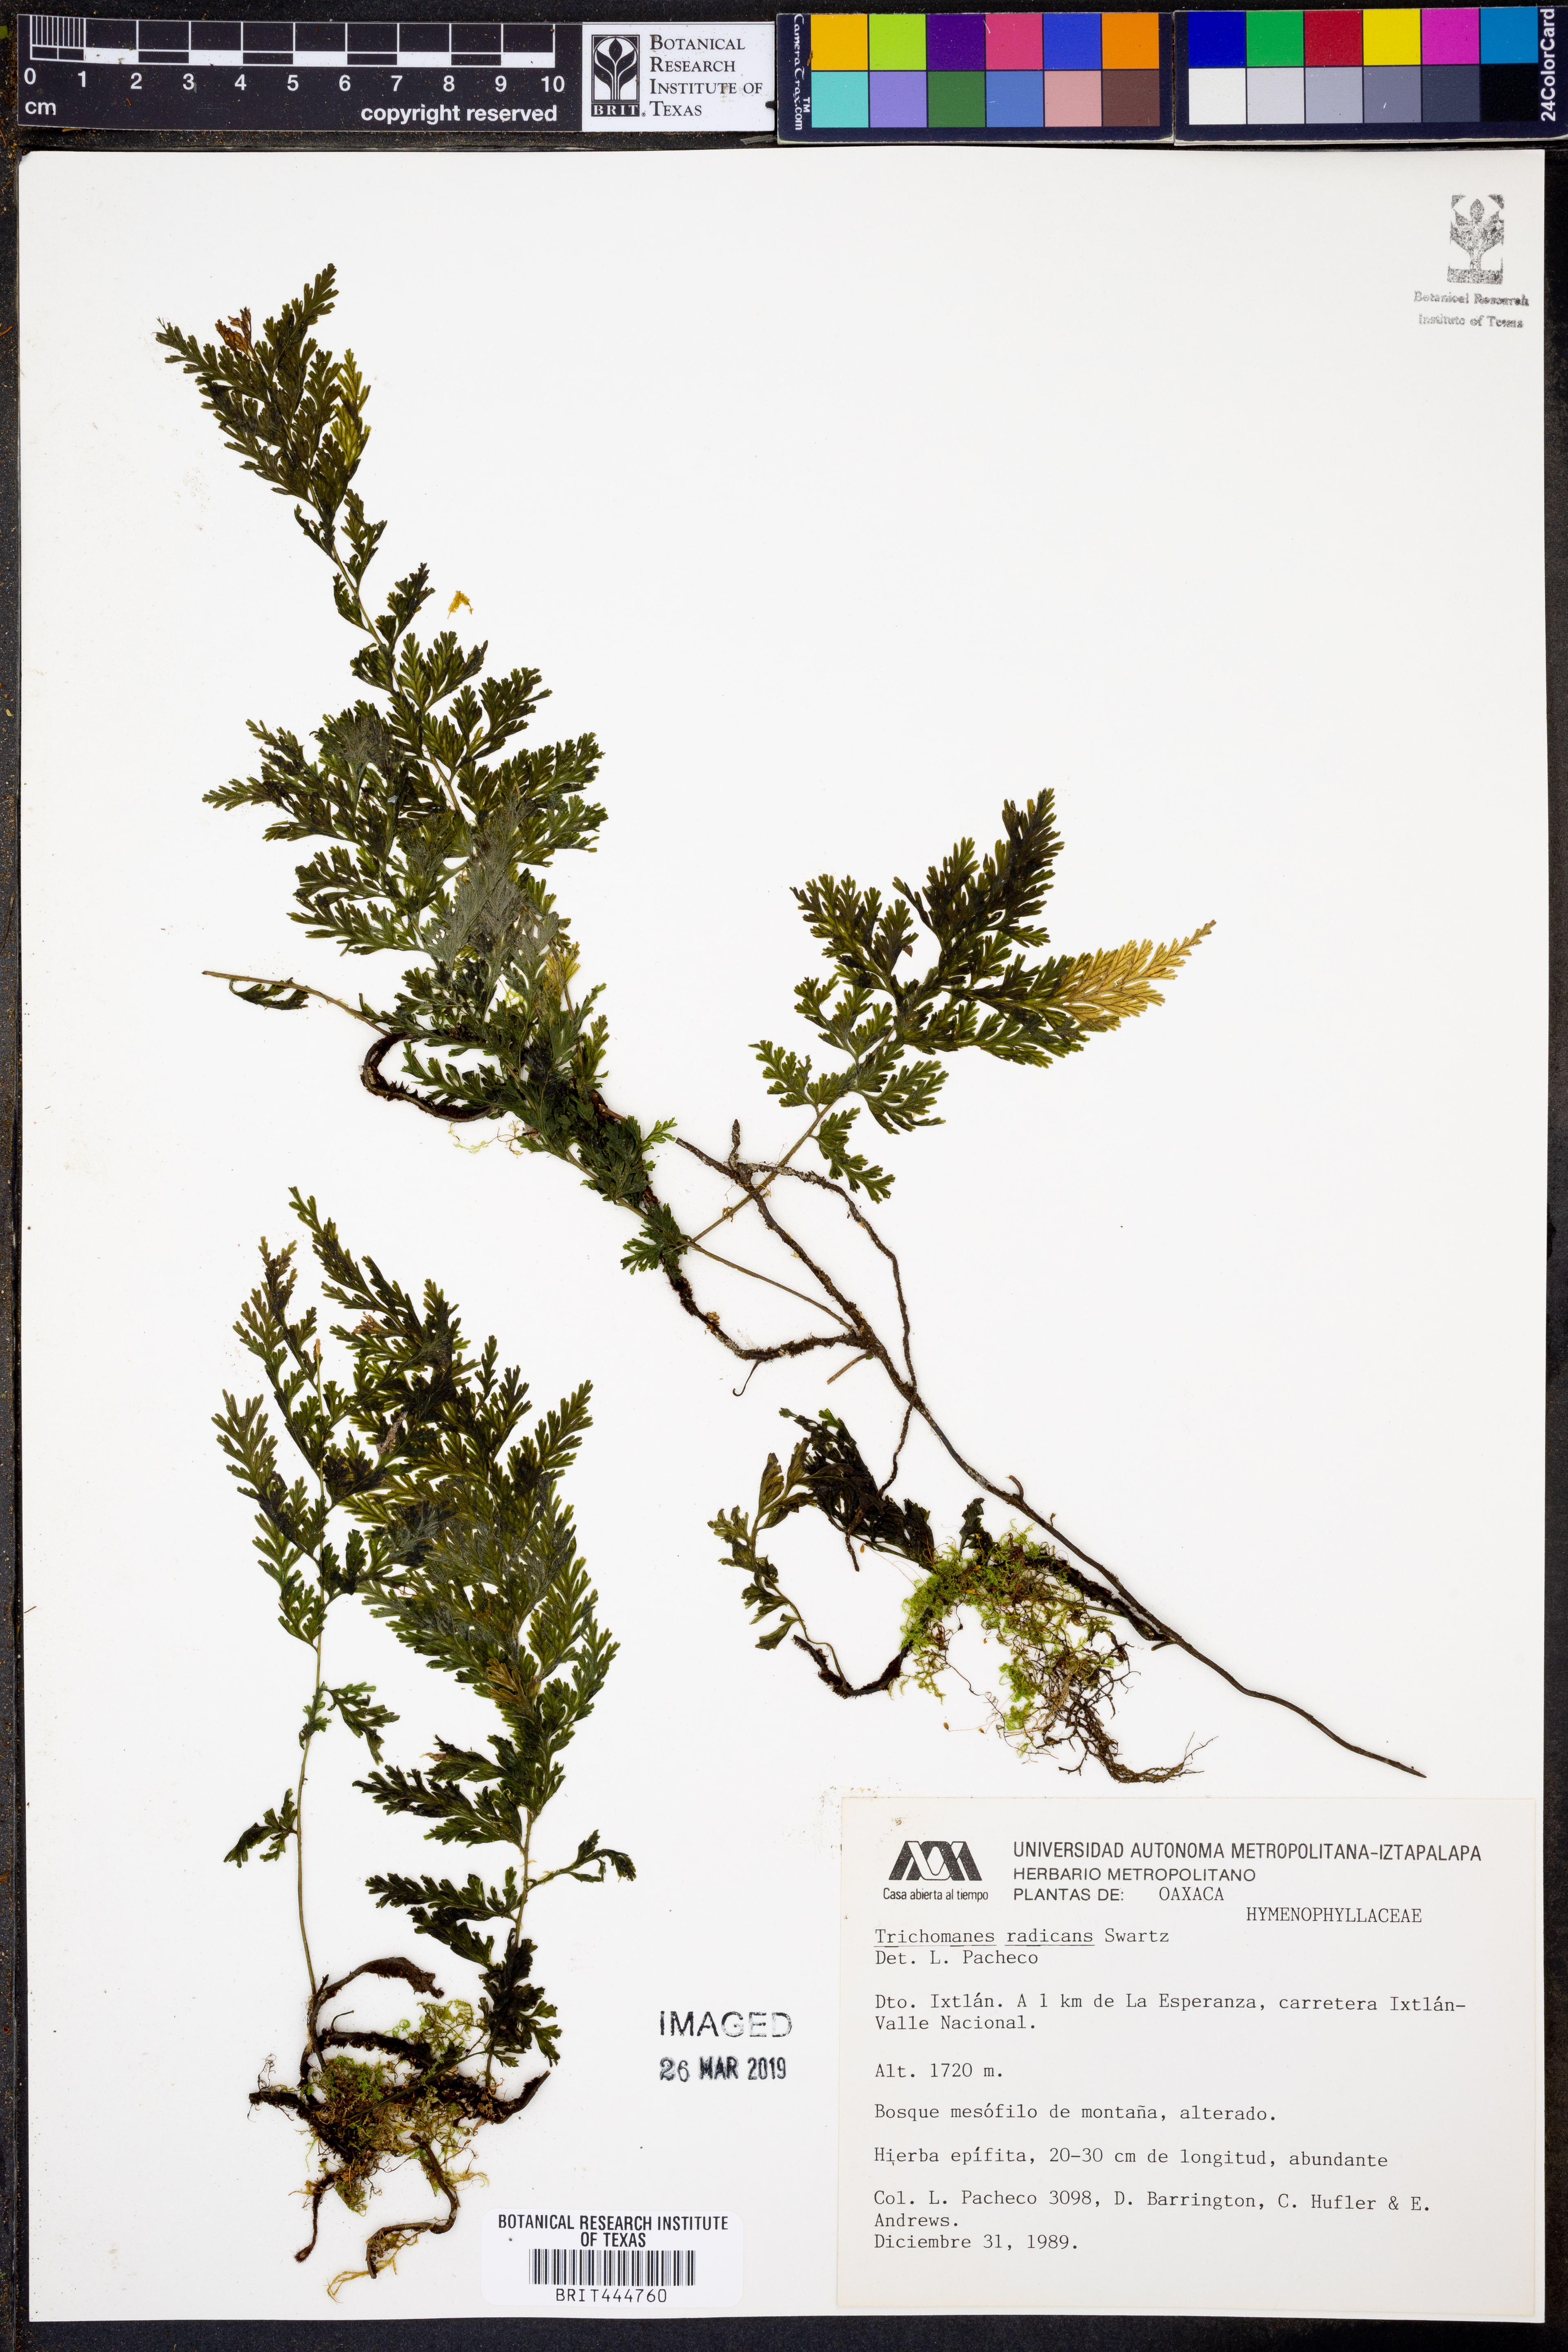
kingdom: Plantae
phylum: Tracheophyta
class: Polypodiopsida
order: Hymenophyllales
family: Hymenophyllaceae
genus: Vandenboschia
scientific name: Vandenboschia radicans
